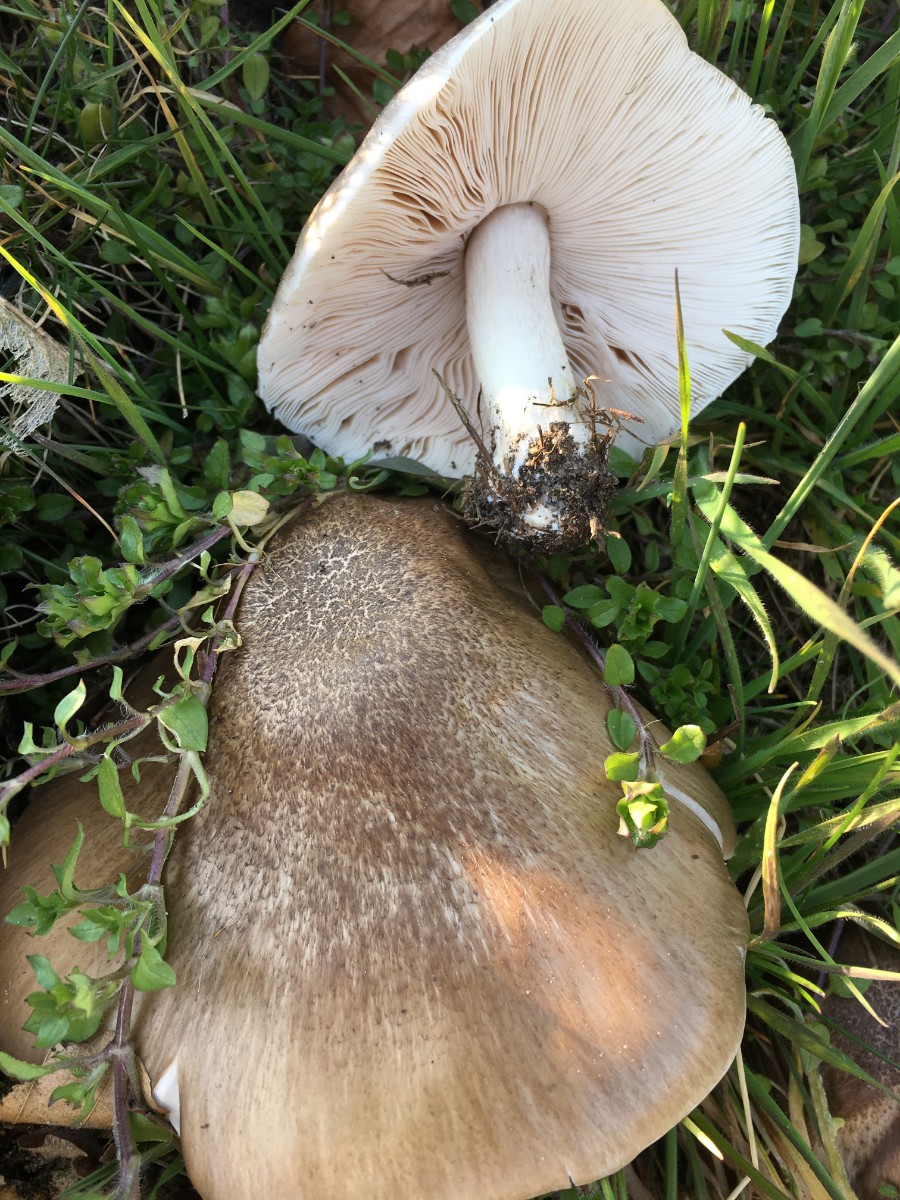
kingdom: Fungi
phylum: Basidiomycota
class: Agaricomycetes
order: Agaricales
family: Pluteaceae
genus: Pluteus
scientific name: Pluteus
